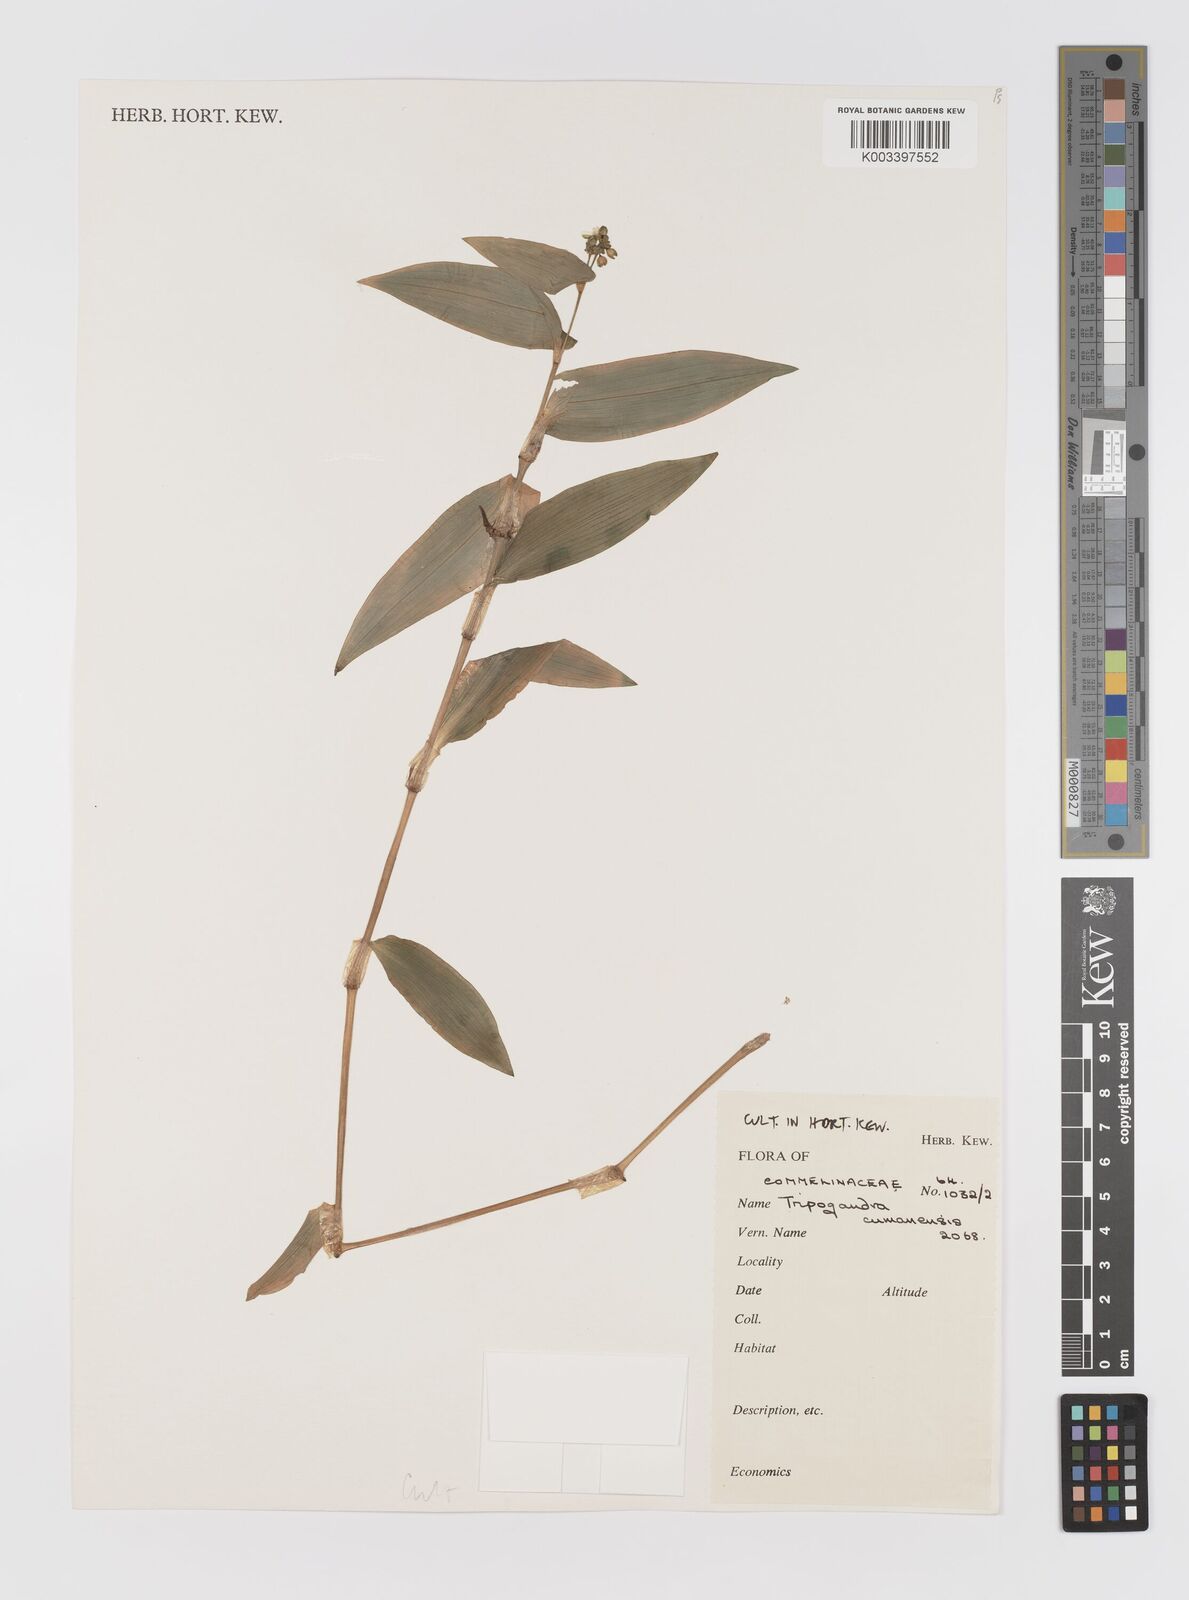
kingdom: Plantae
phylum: Tracheophyta
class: Liliopsida
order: Commelinales
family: Commelinaceae
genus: Callisia
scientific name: Callisia serrulata
